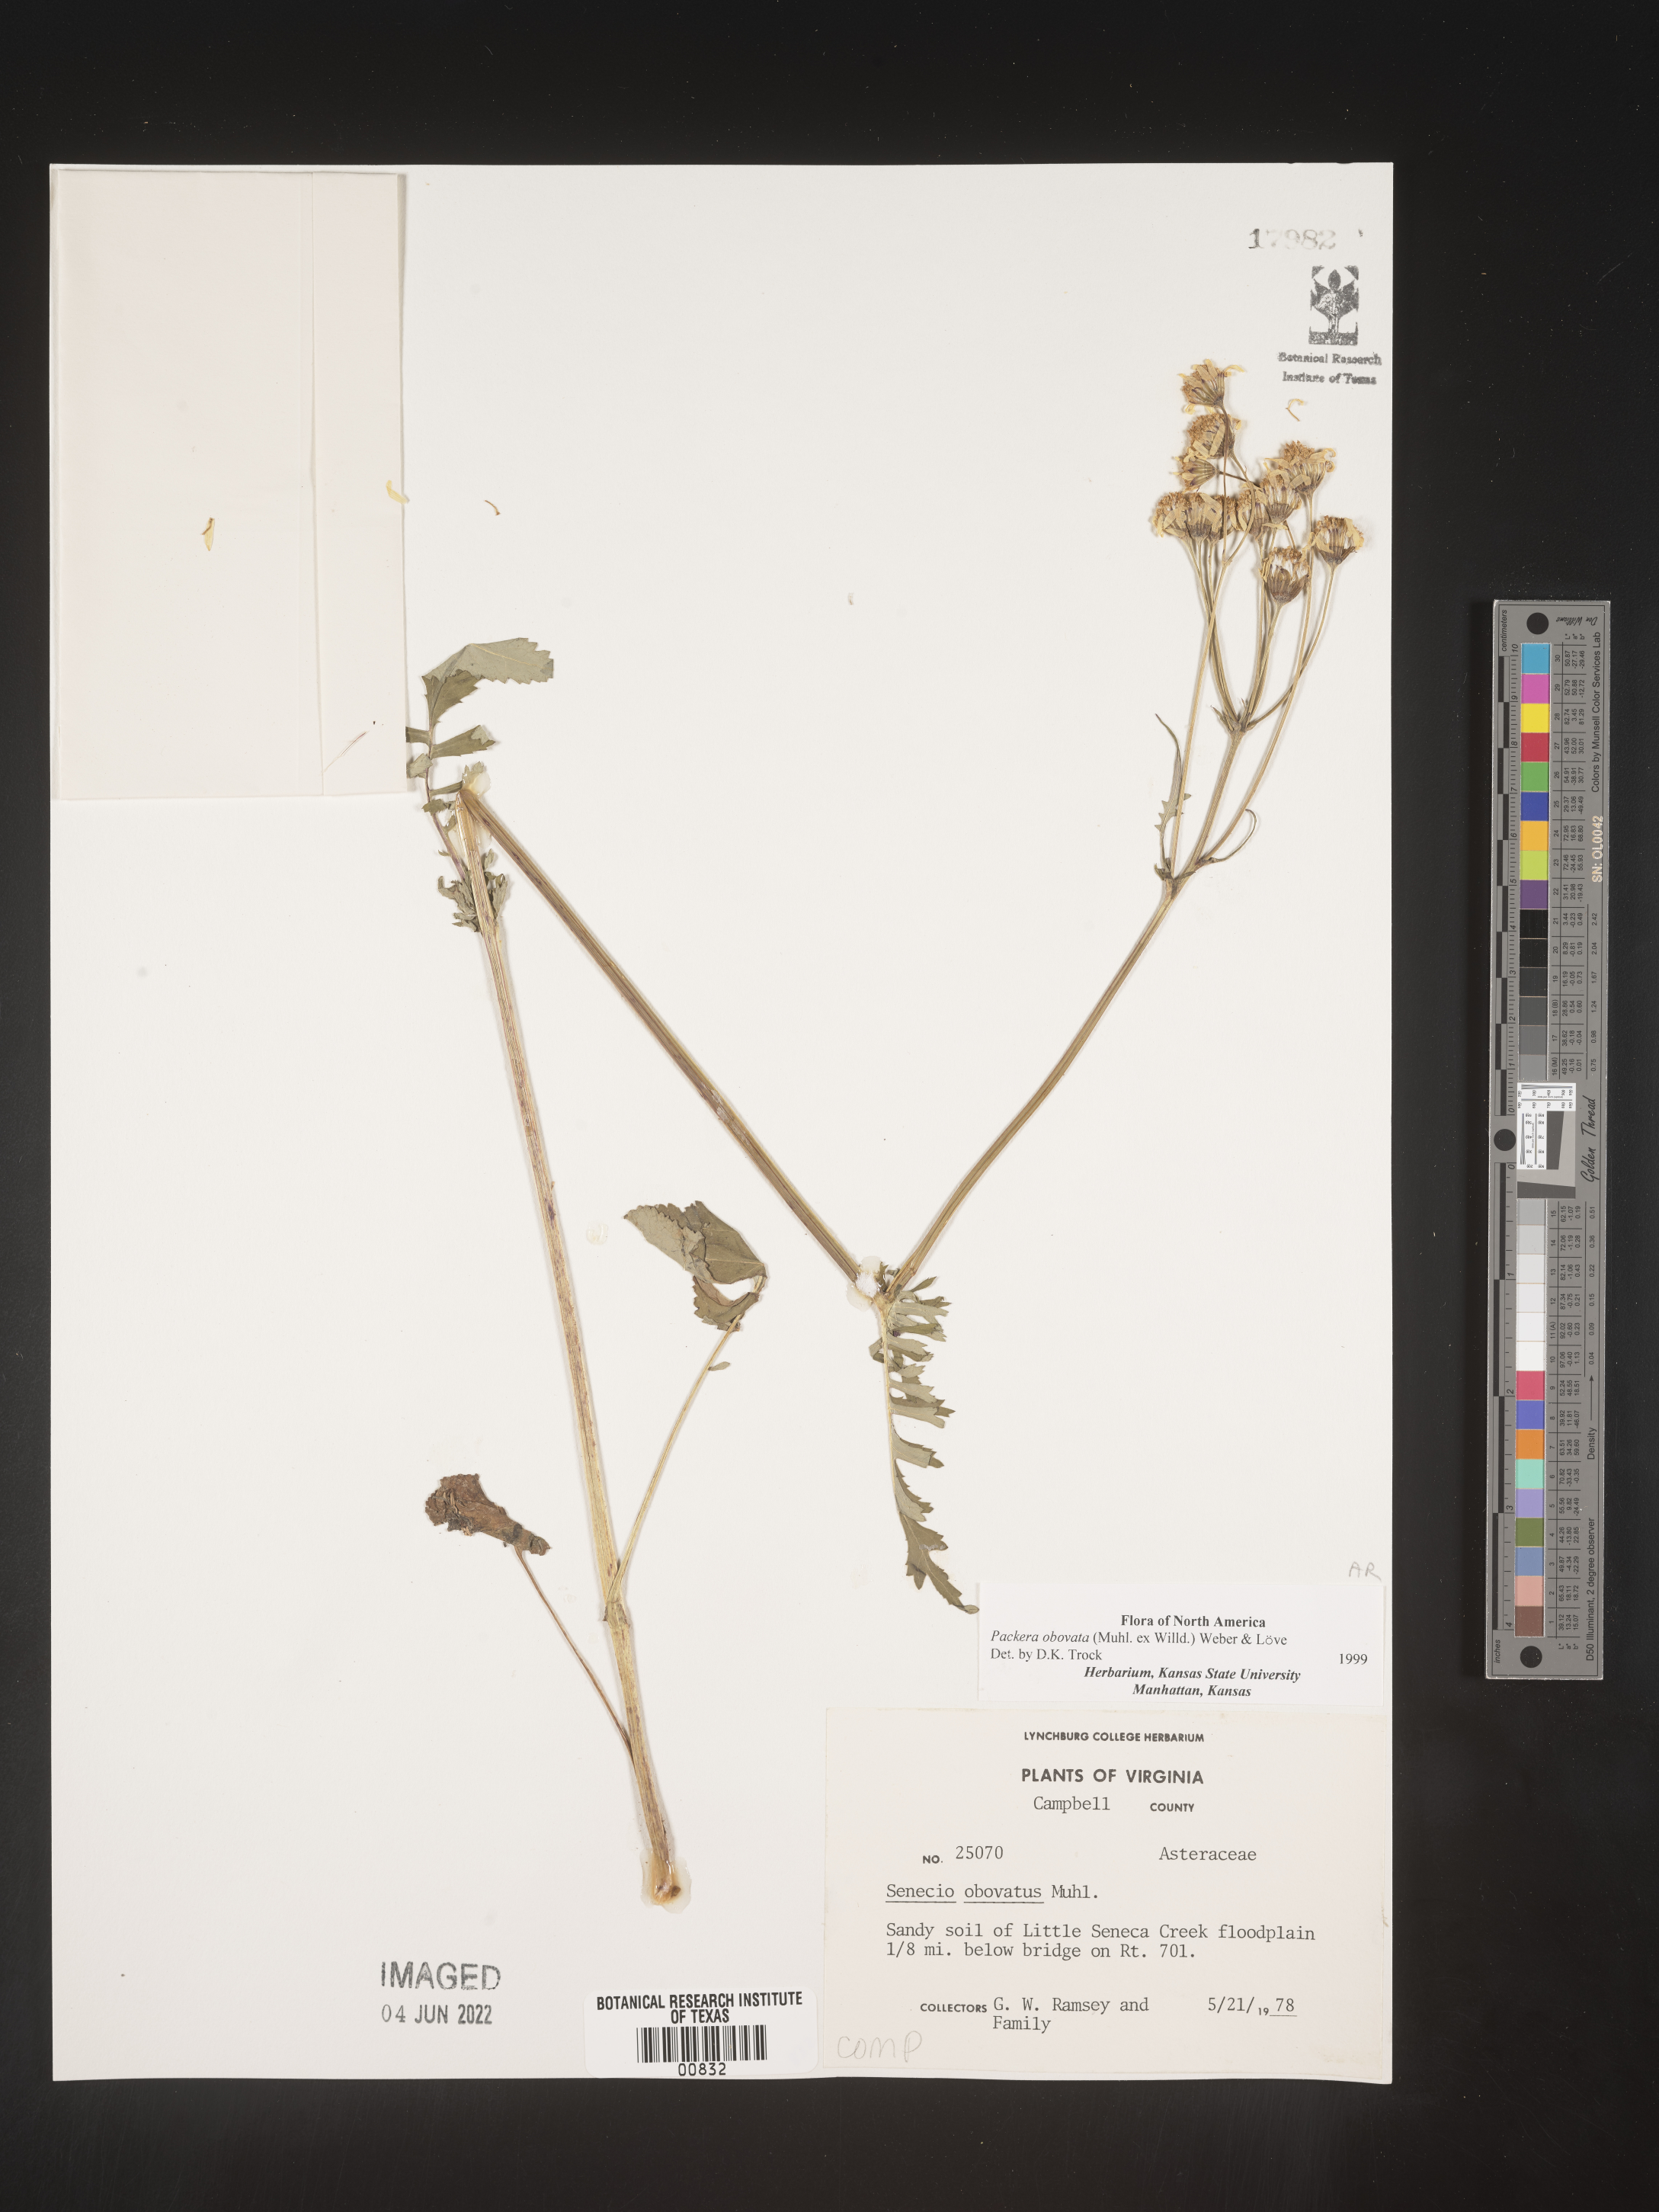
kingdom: Plantae
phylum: Tracheophyta
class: Magnoliopsida
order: Asterales
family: Asteraceae
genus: Packera
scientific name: Packera obovata
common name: Round-leaf ragwort
